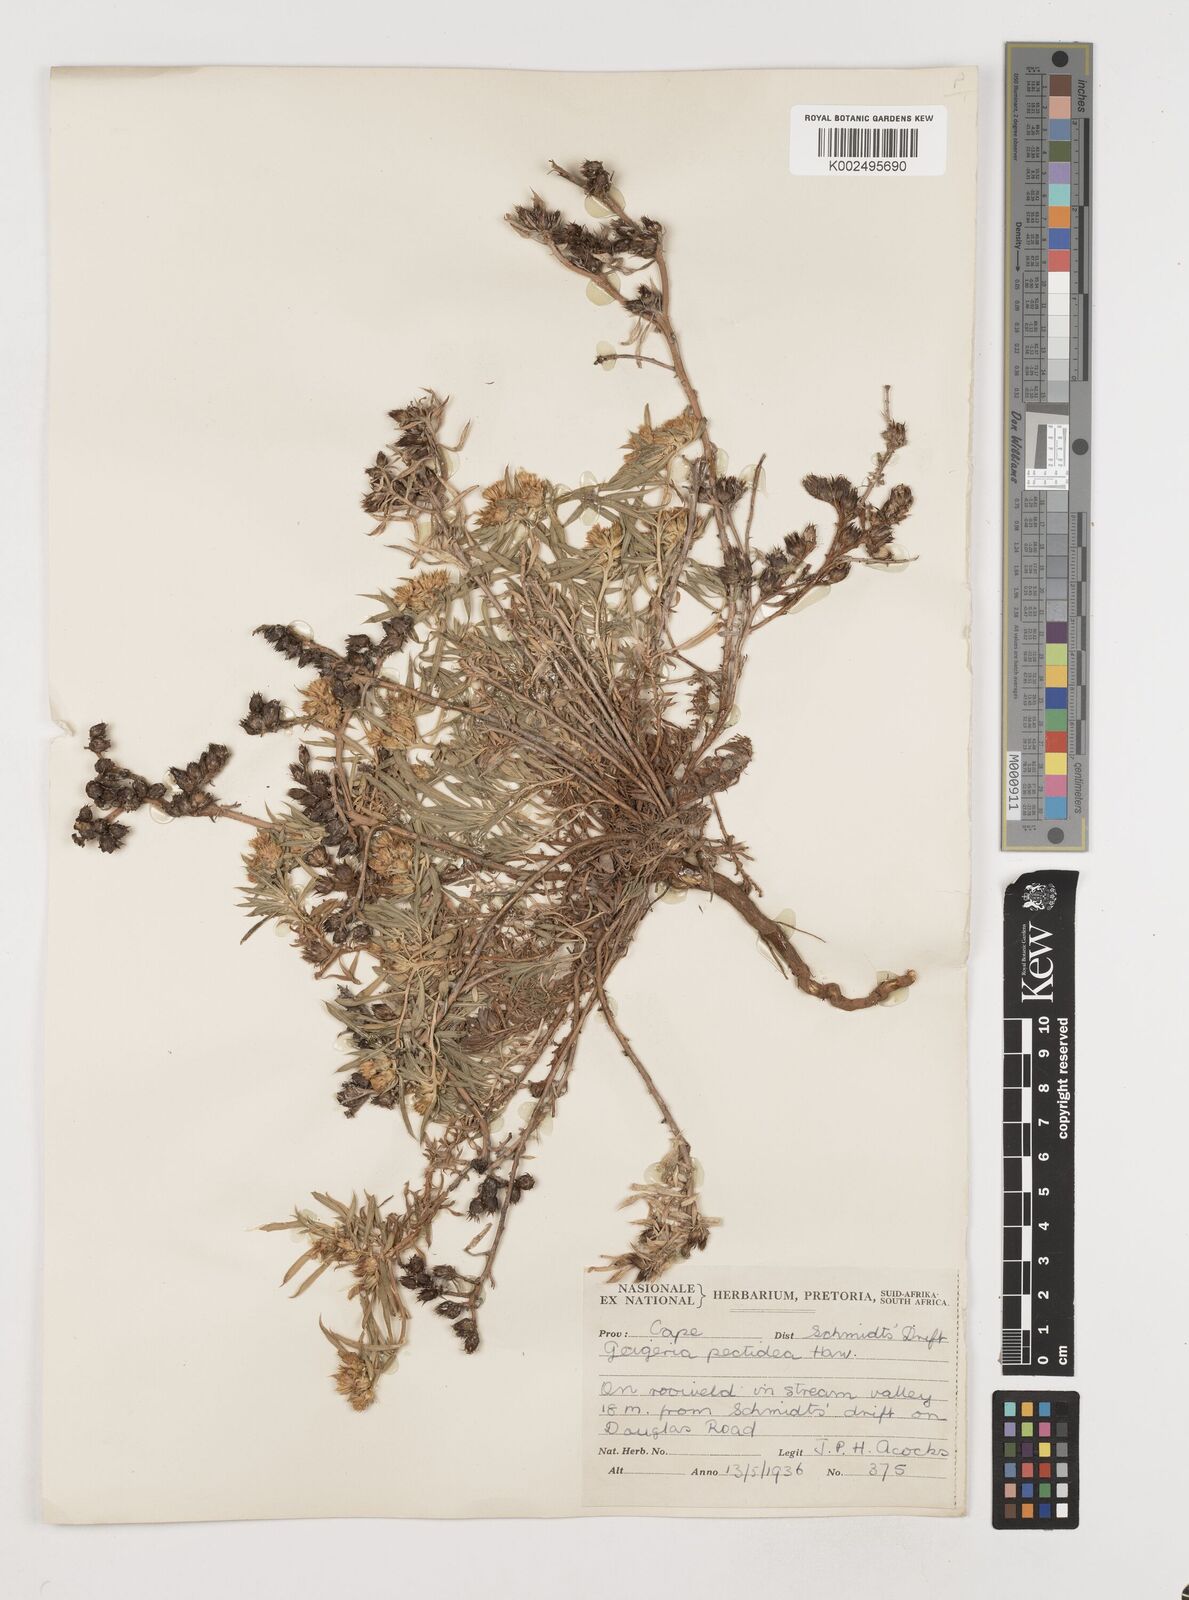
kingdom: Plantae
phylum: Tracheophyta
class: Magnoliopsida
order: Asterales
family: Asteraceae
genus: Geigeria
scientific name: Geigeria pectidea
